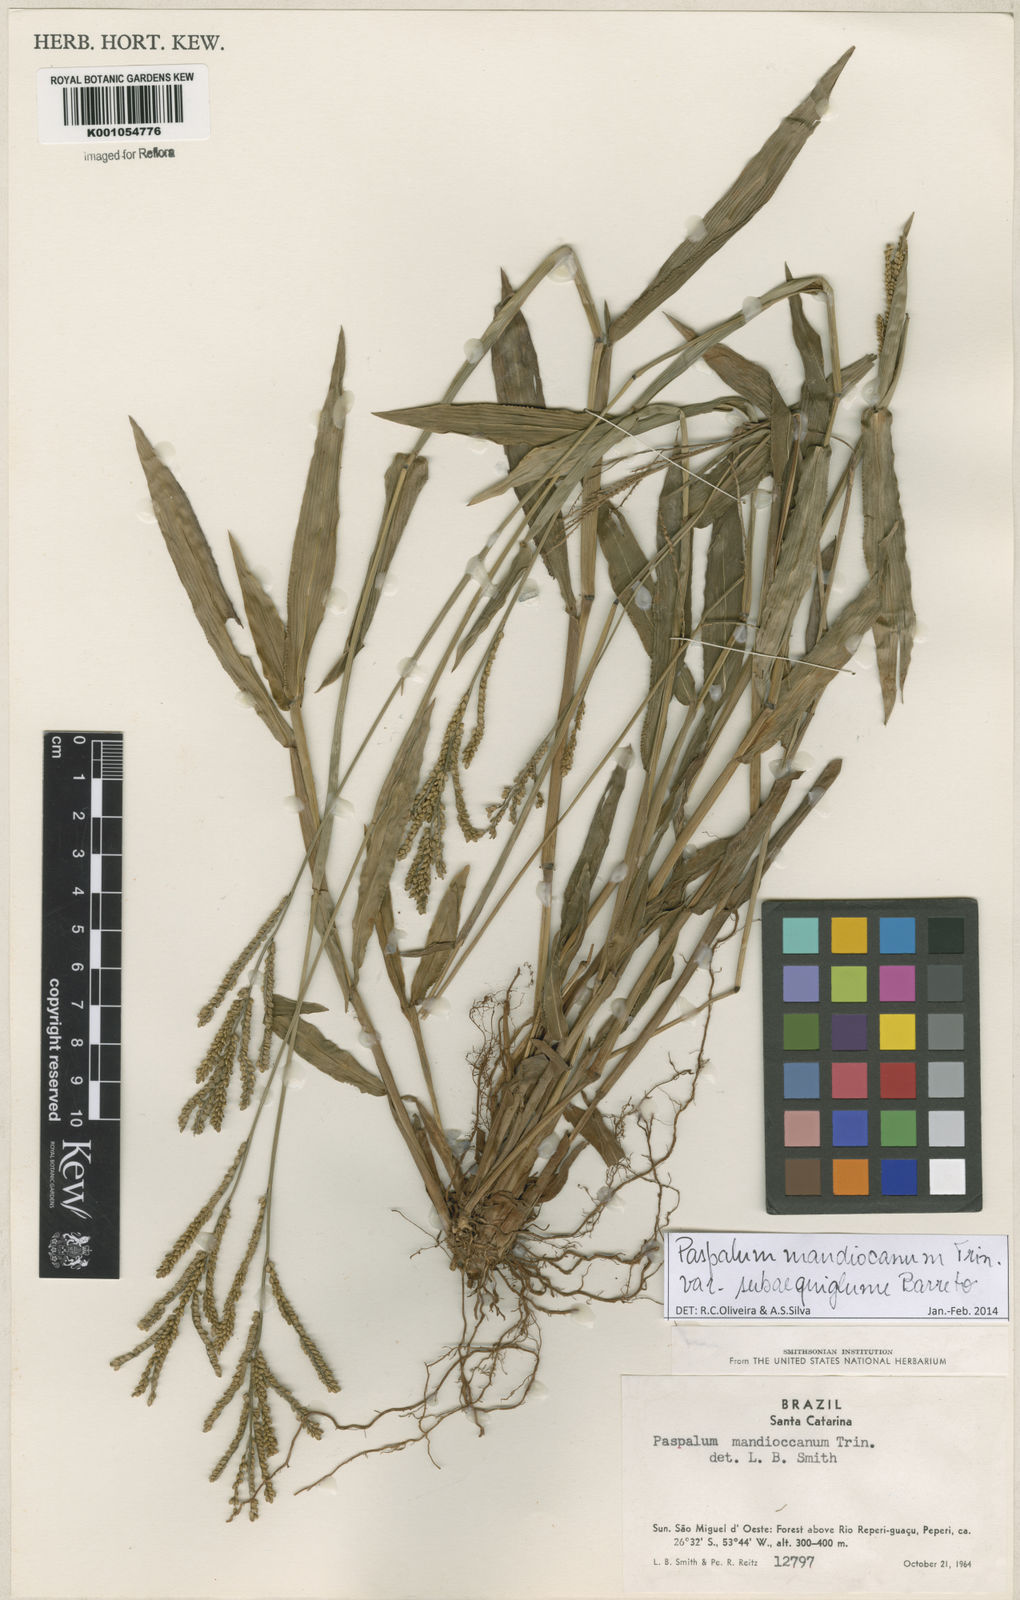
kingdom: Plantae
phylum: Tracheophyta
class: Liliopsida
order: Poales
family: Poaceae
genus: Paspalum
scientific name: Paspalum mandiocanum
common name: Paspalum
